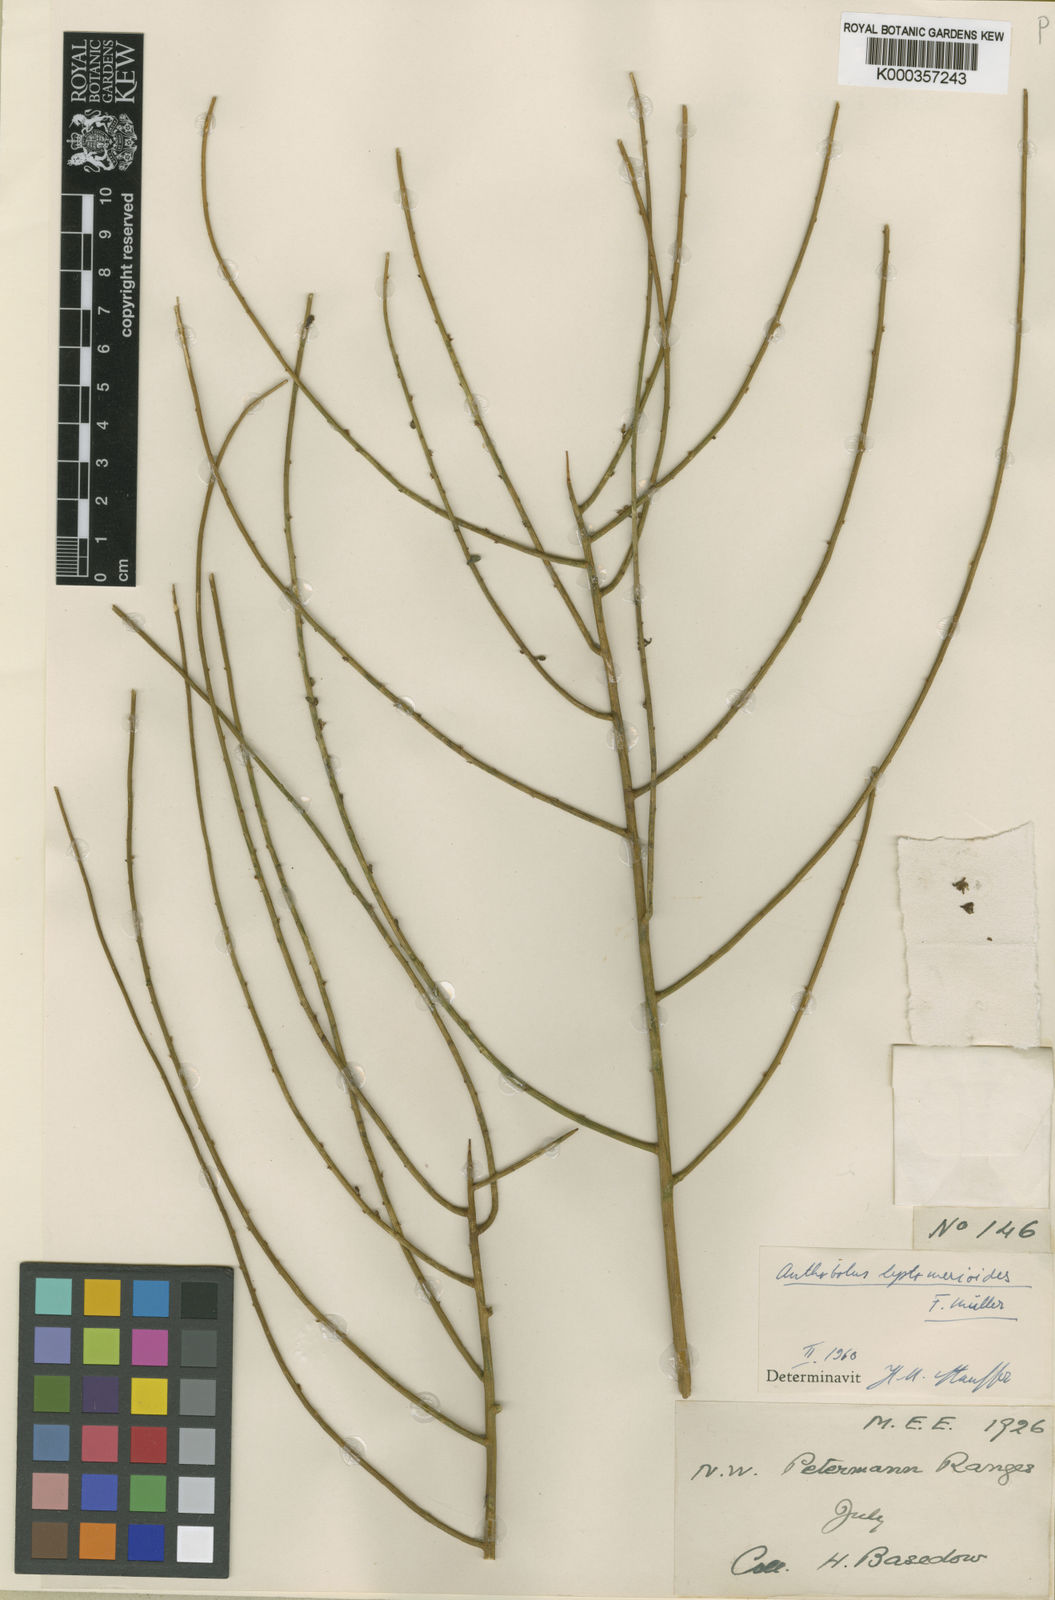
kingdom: Plantae
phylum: Tracheophyta
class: Magnoliopsida
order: Santalales
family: Opiliaceae
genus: Anthobolus
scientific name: Anthobolus
